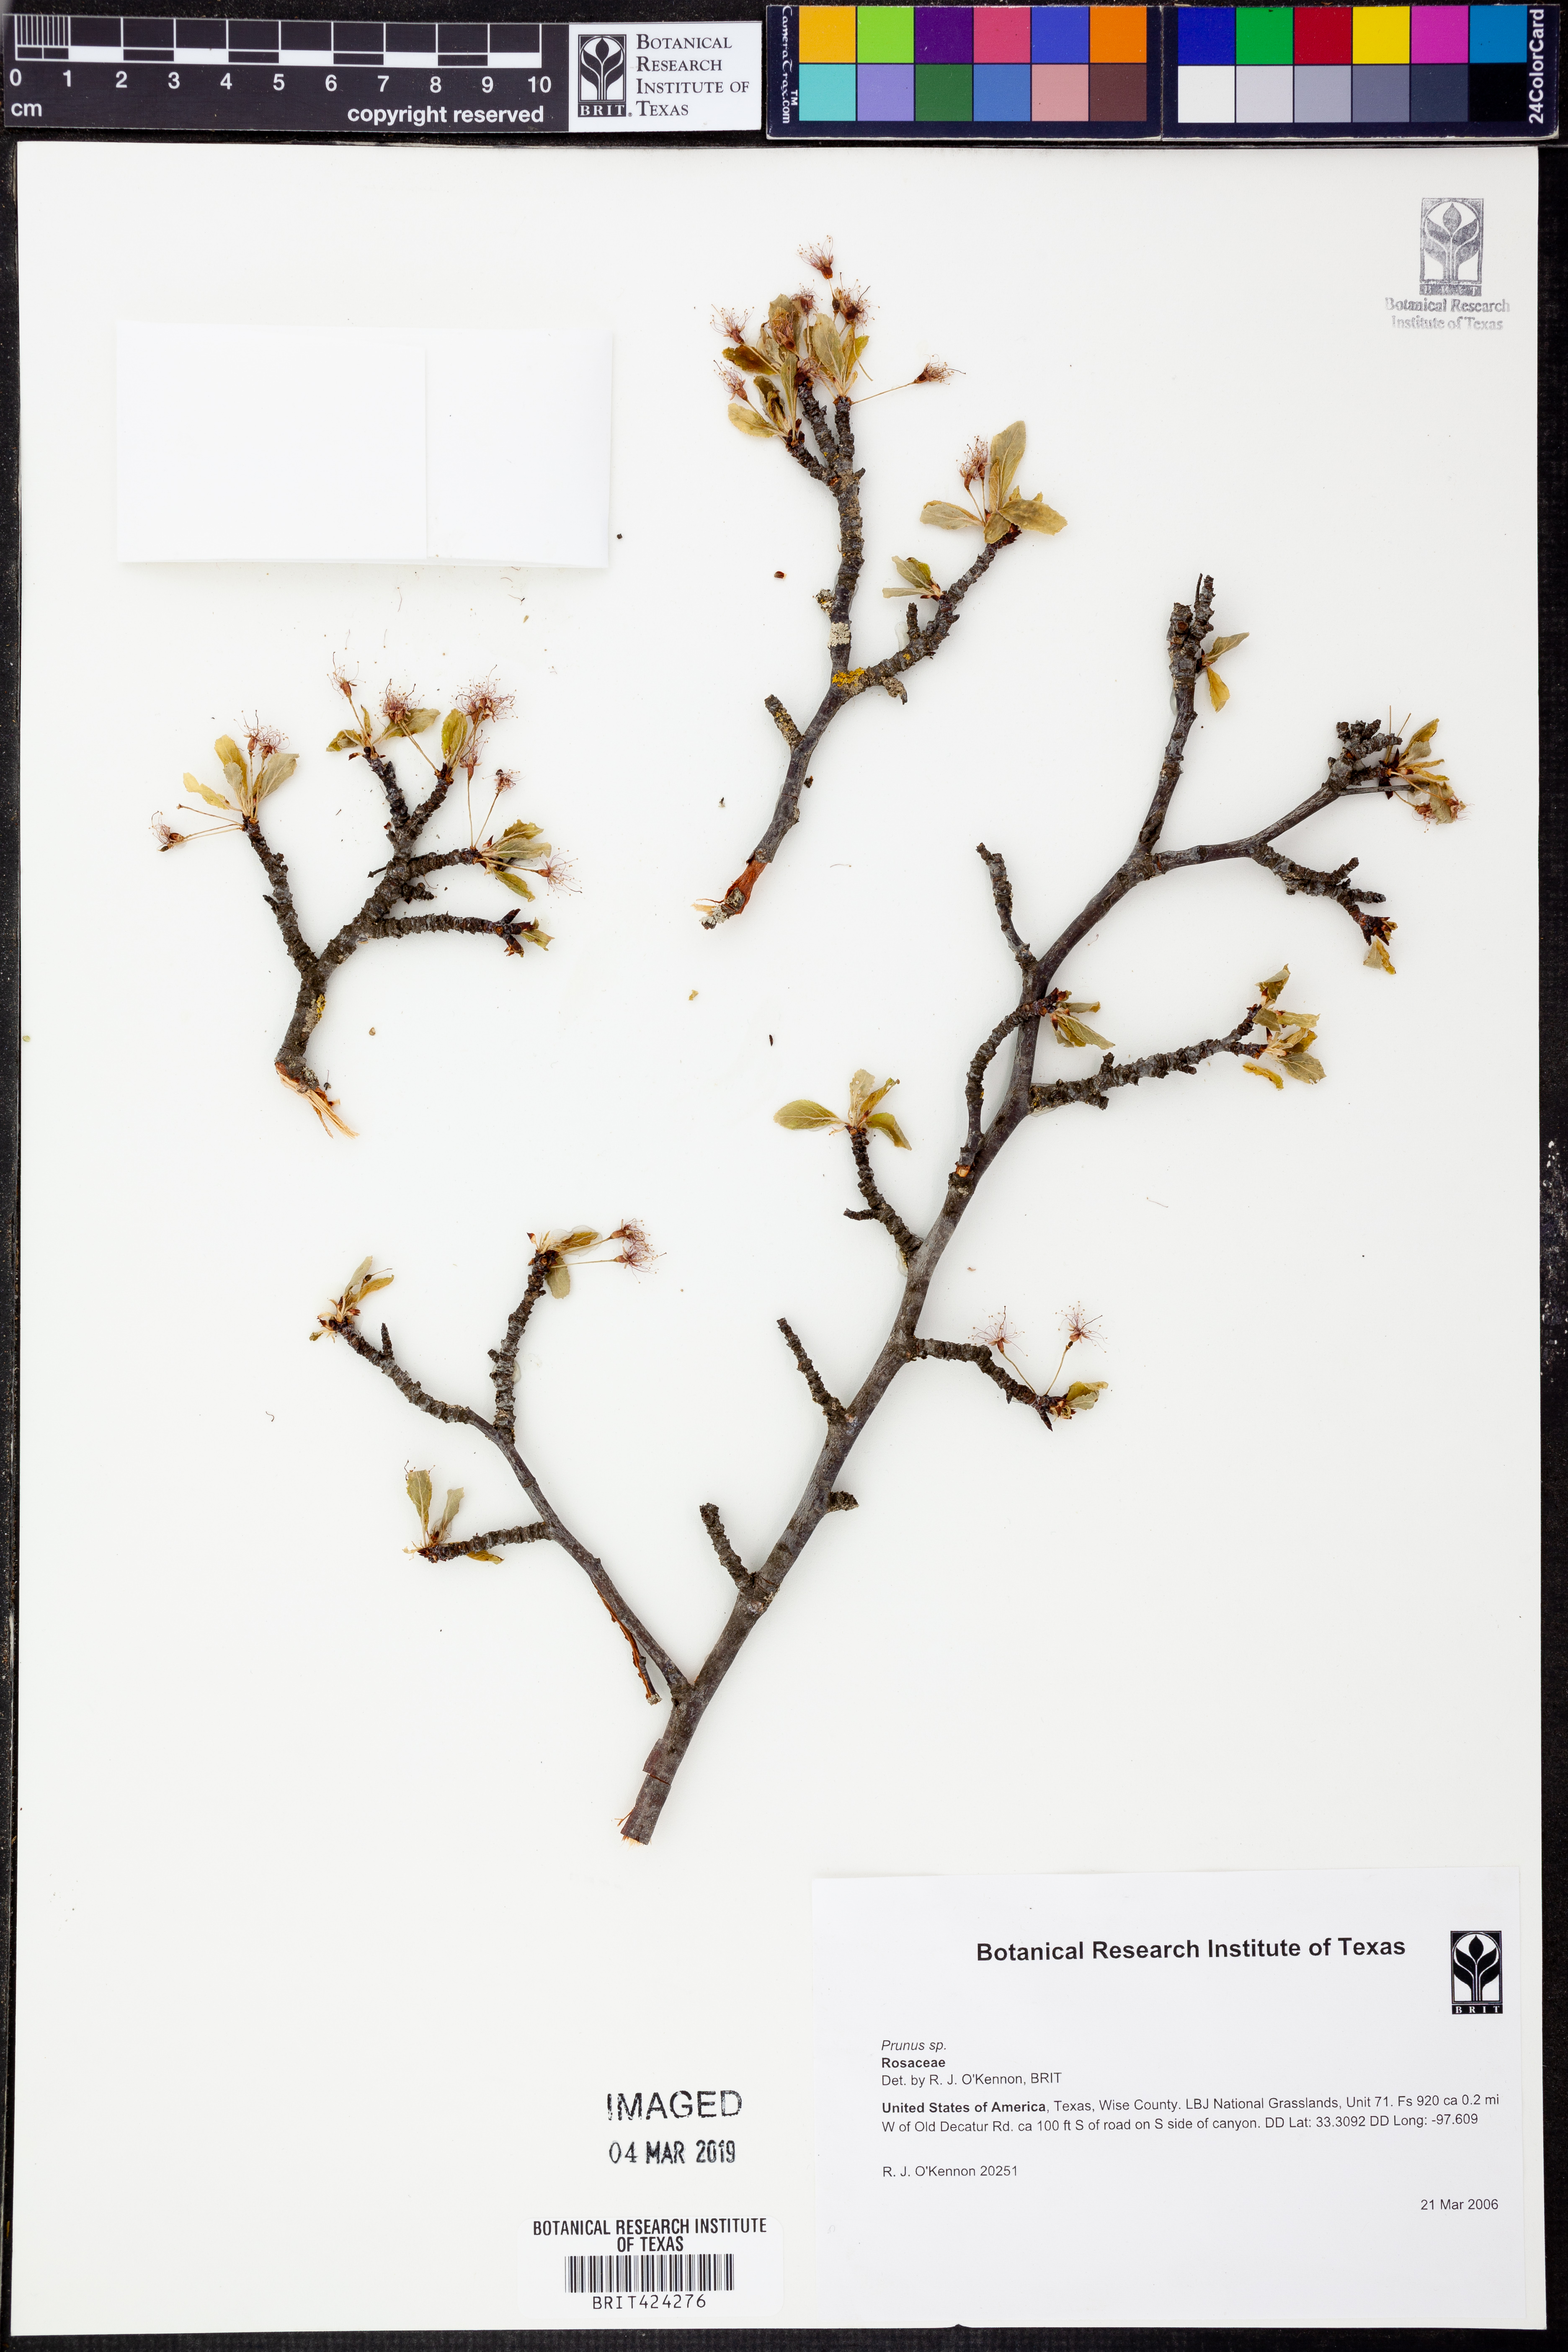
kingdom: Plantae
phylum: Tracheophyta
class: Magnoliopsida
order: Rosales
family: Rosaceae
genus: Prunus
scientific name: Prunus
